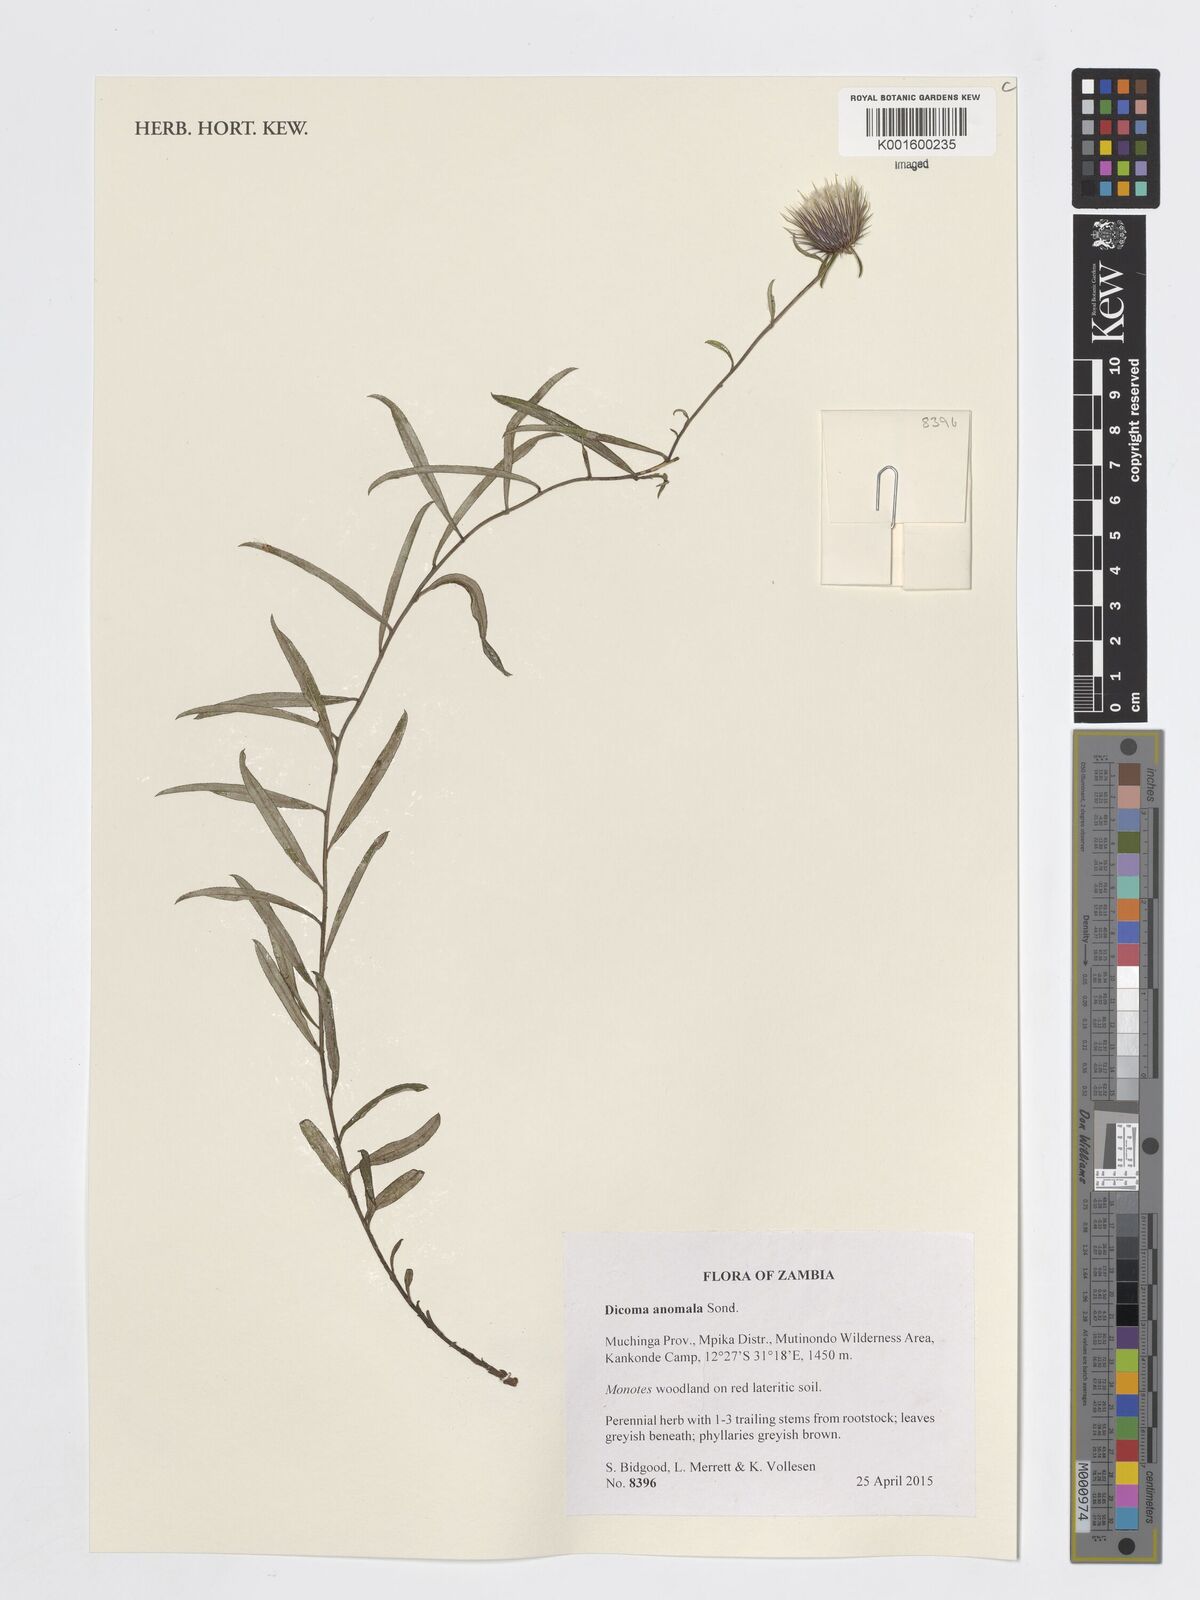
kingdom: Plantae
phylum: Tracheophyta
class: Magnoliopsida
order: Asterales
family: Asteraceae
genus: Dicoma
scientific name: Dicoma anomala
